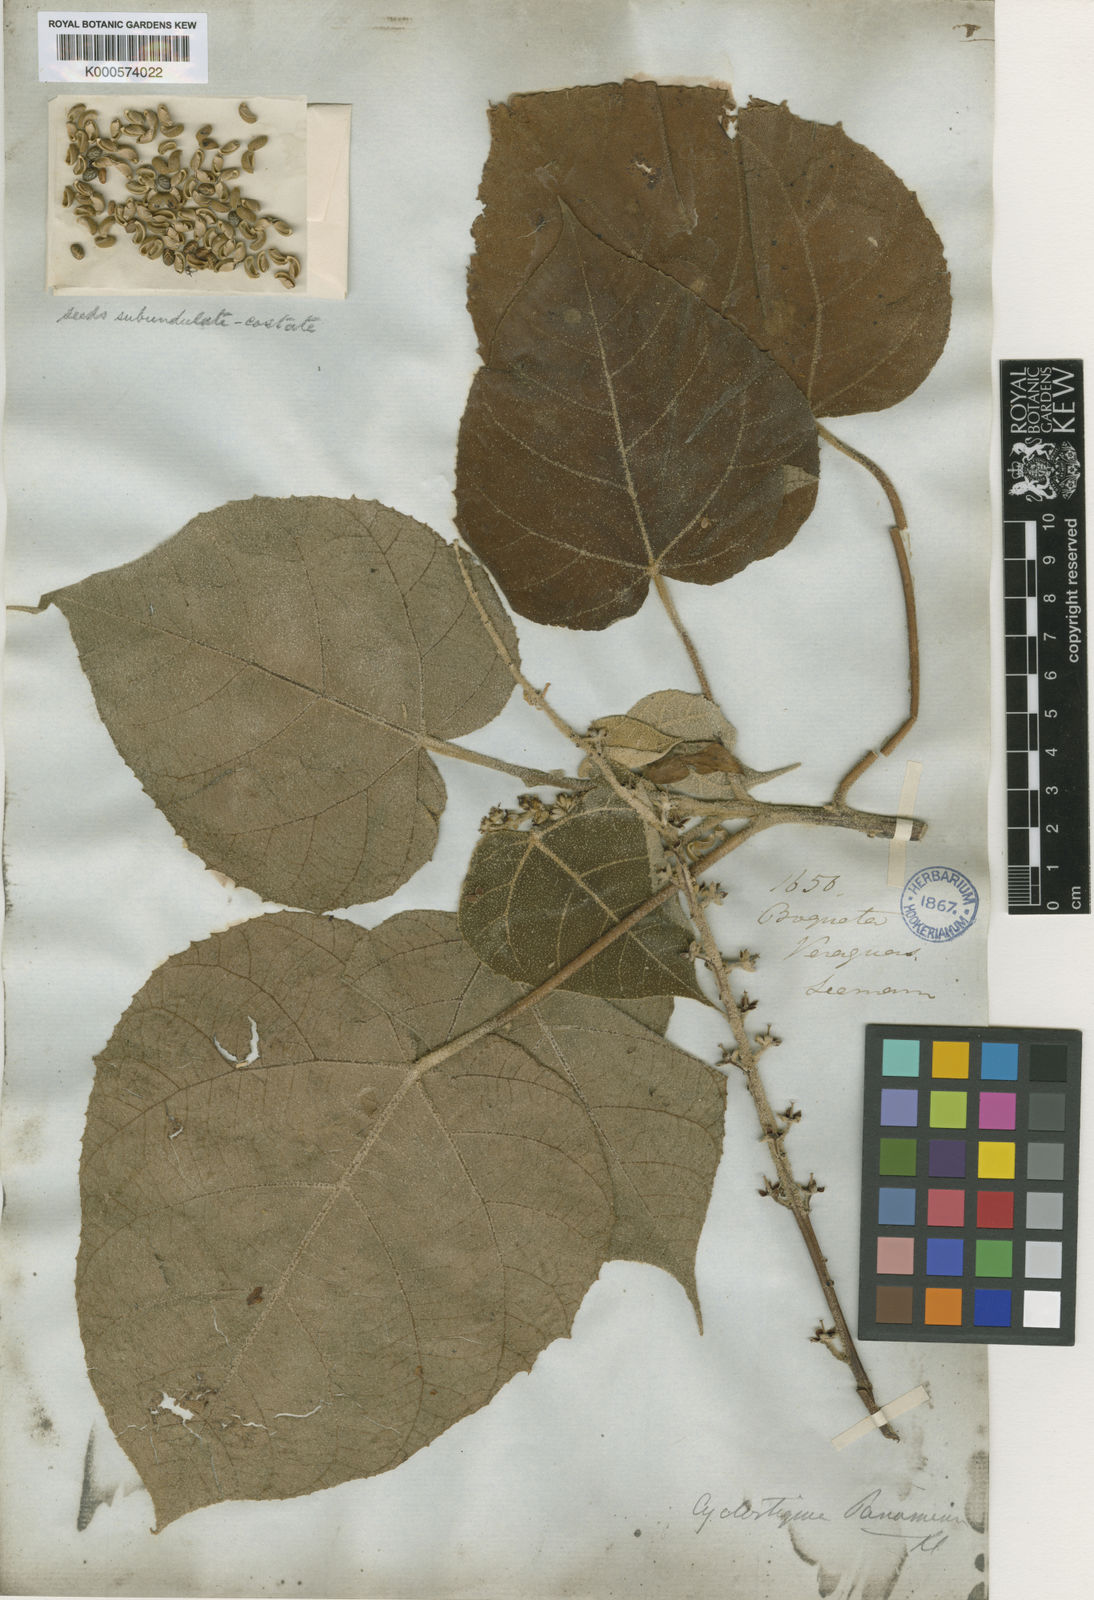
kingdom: Plantae
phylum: Tracheophyta
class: Magnoliopsida
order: Malpighiales
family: Euphorbiaceae
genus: Croton
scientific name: Croton
